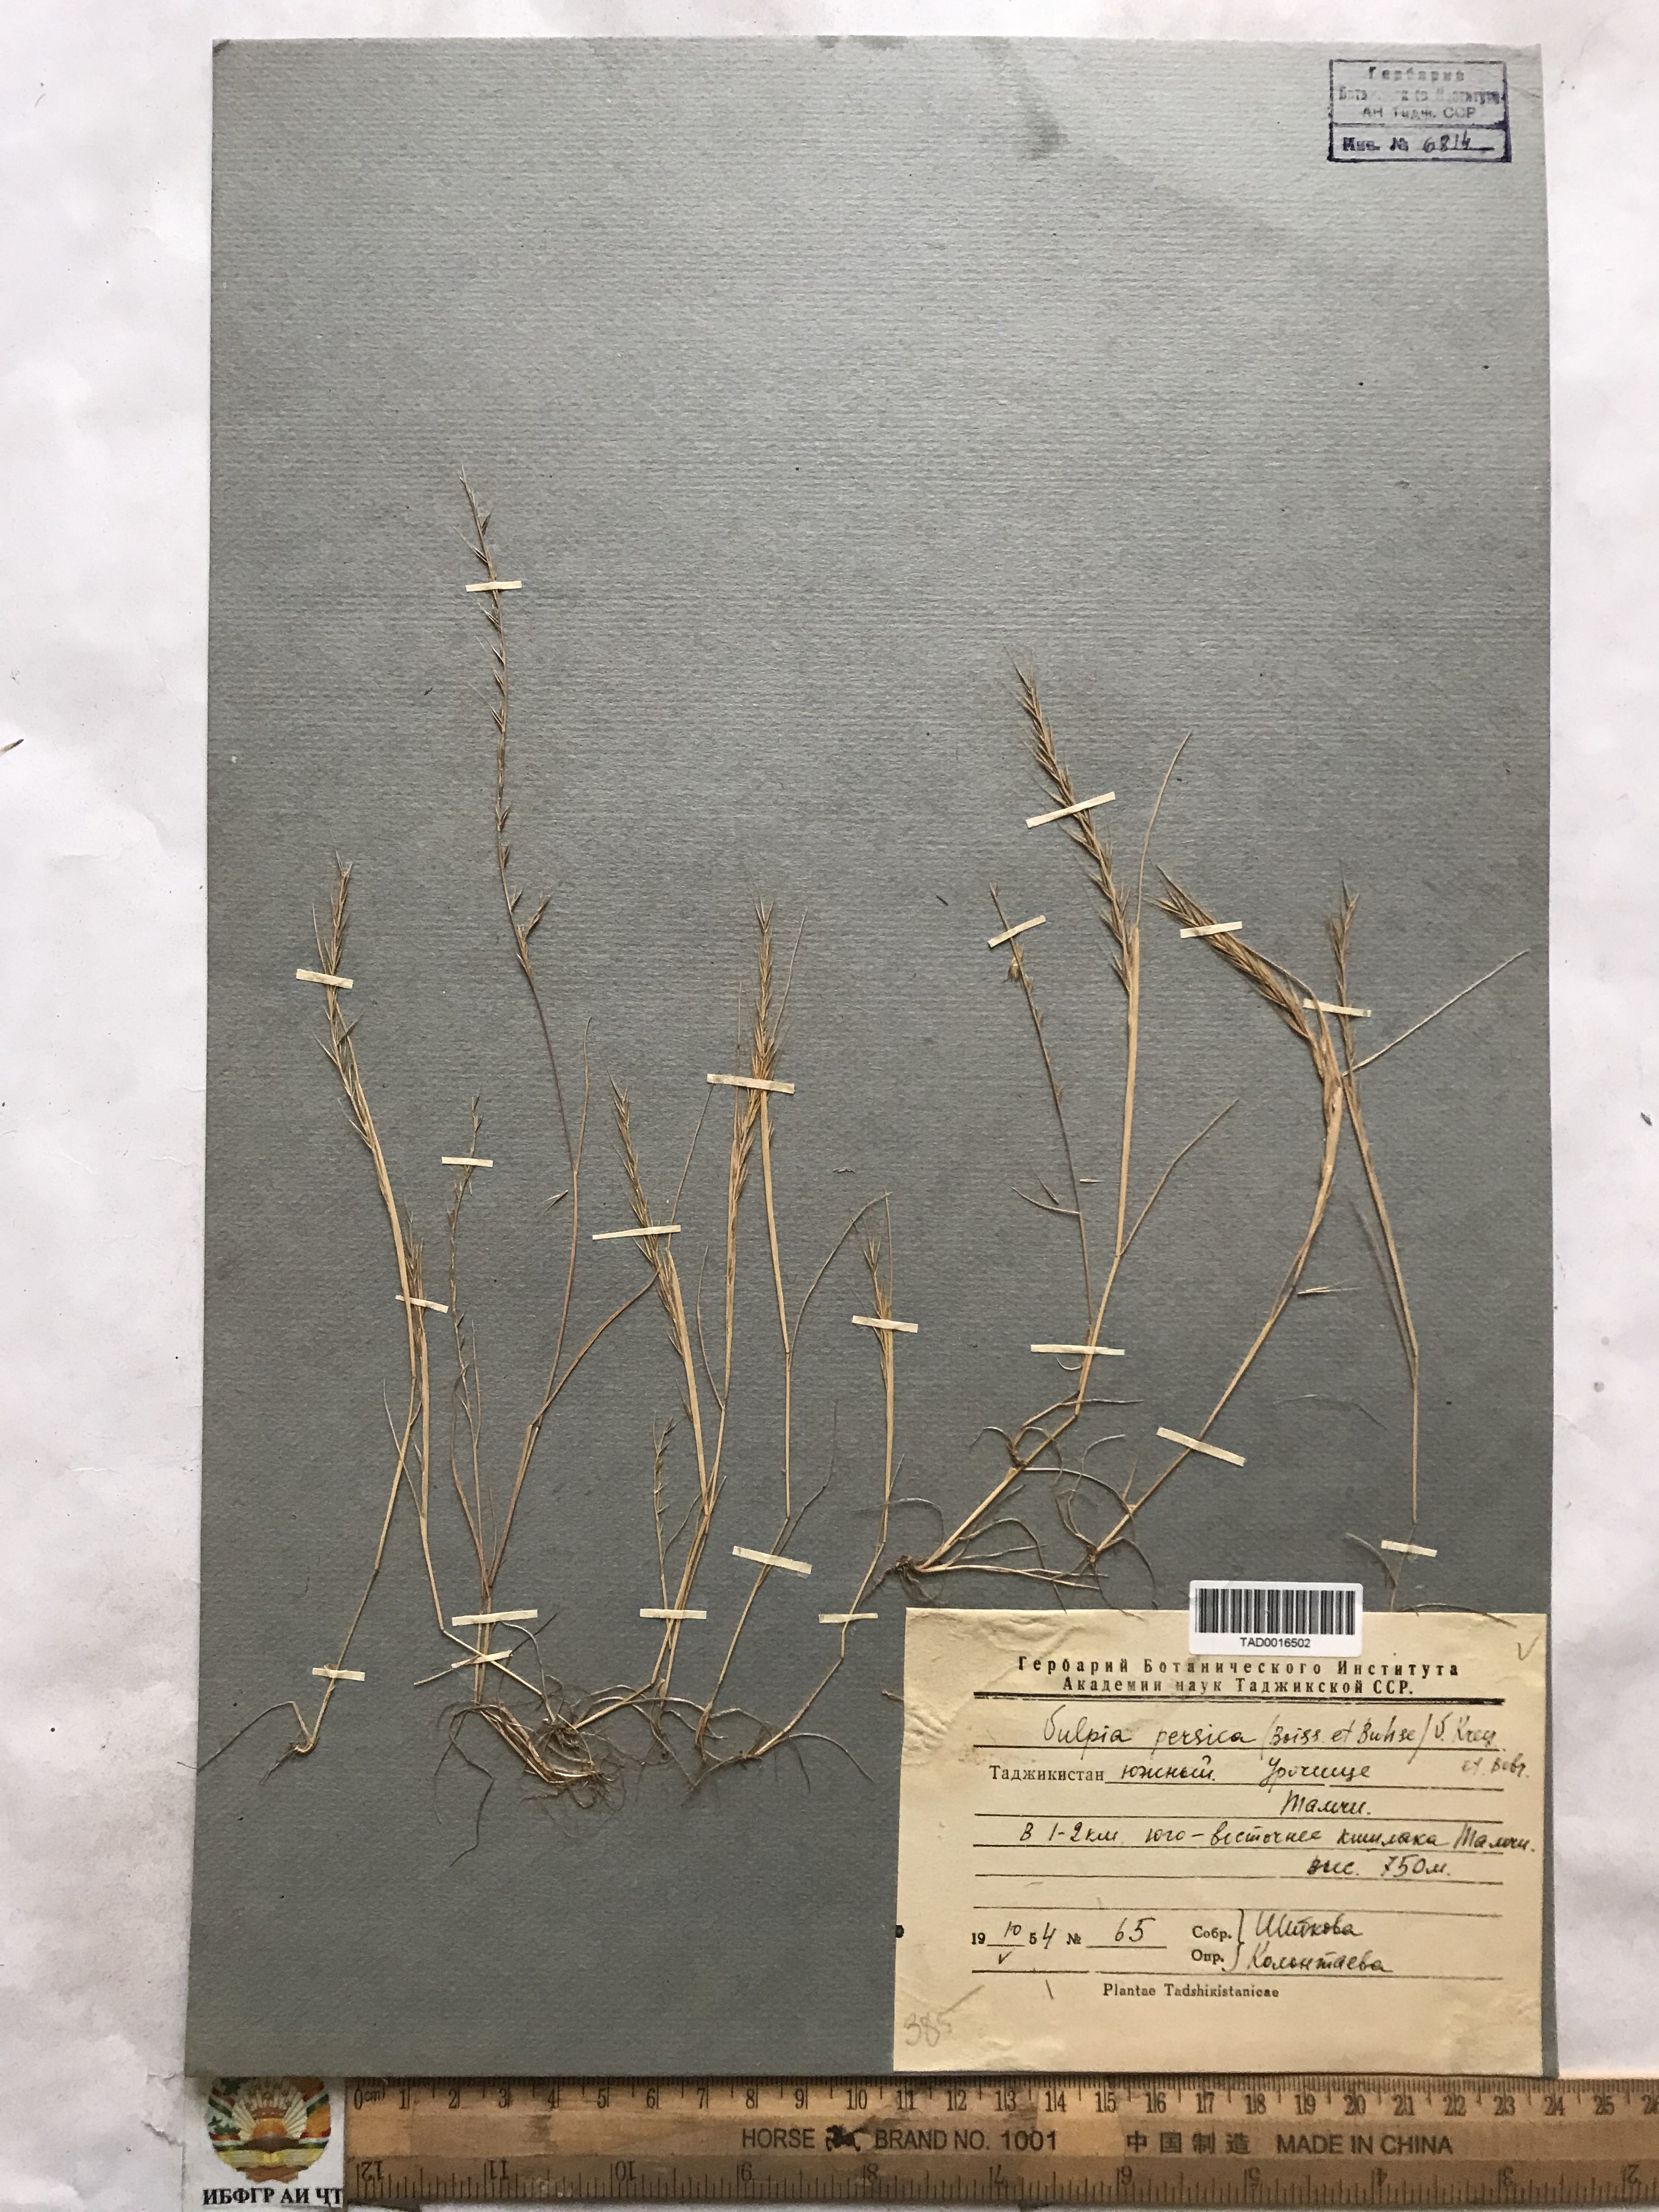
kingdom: Plantae
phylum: Tracheophyta
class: Liliopsida
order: Poales
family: Poaceae
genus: Festuca
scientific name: Festuca Vulpia persica
